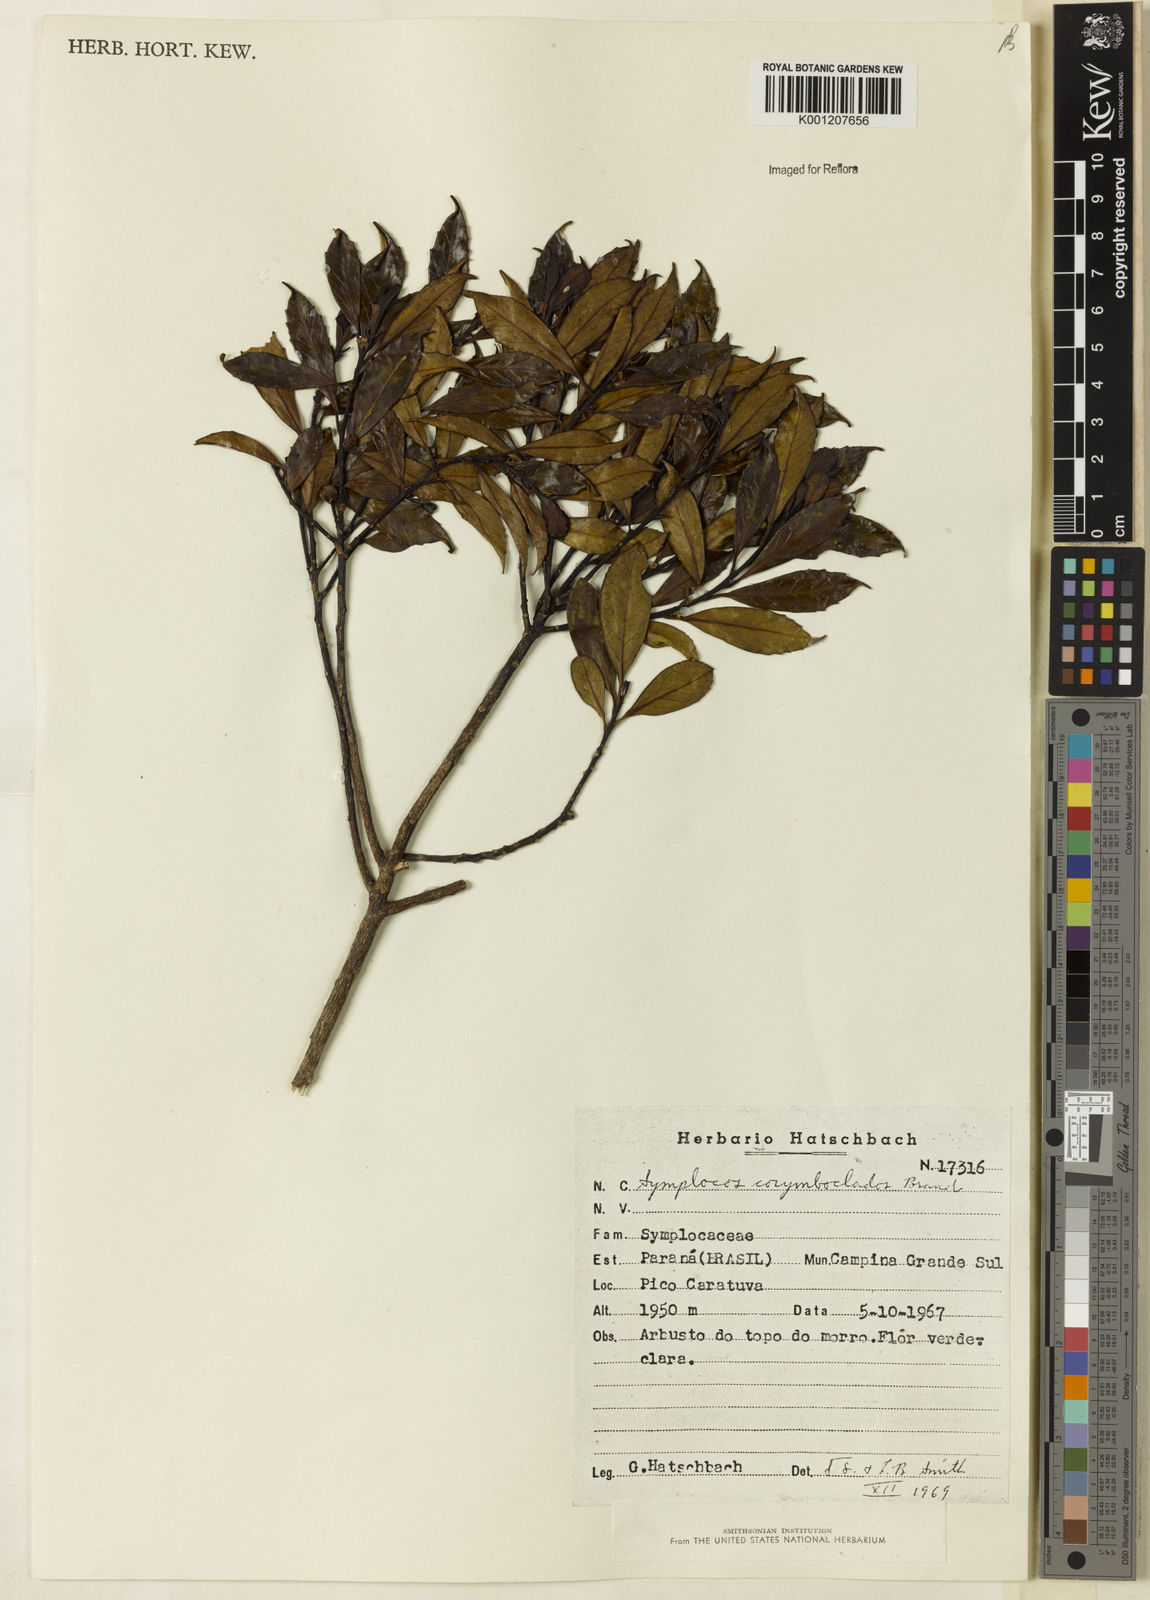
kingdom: Plantae
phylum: Tracheophyta
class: Magnoliopsida
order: Ericales
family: Symplocaceae
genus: Symplocos
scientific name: Symplocos corymboclados
